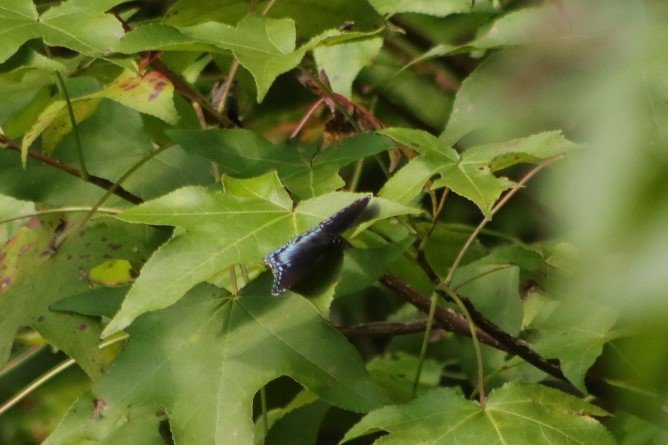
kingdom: Animalia
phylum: Arthropoda
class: Insecta
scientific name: Insecta
